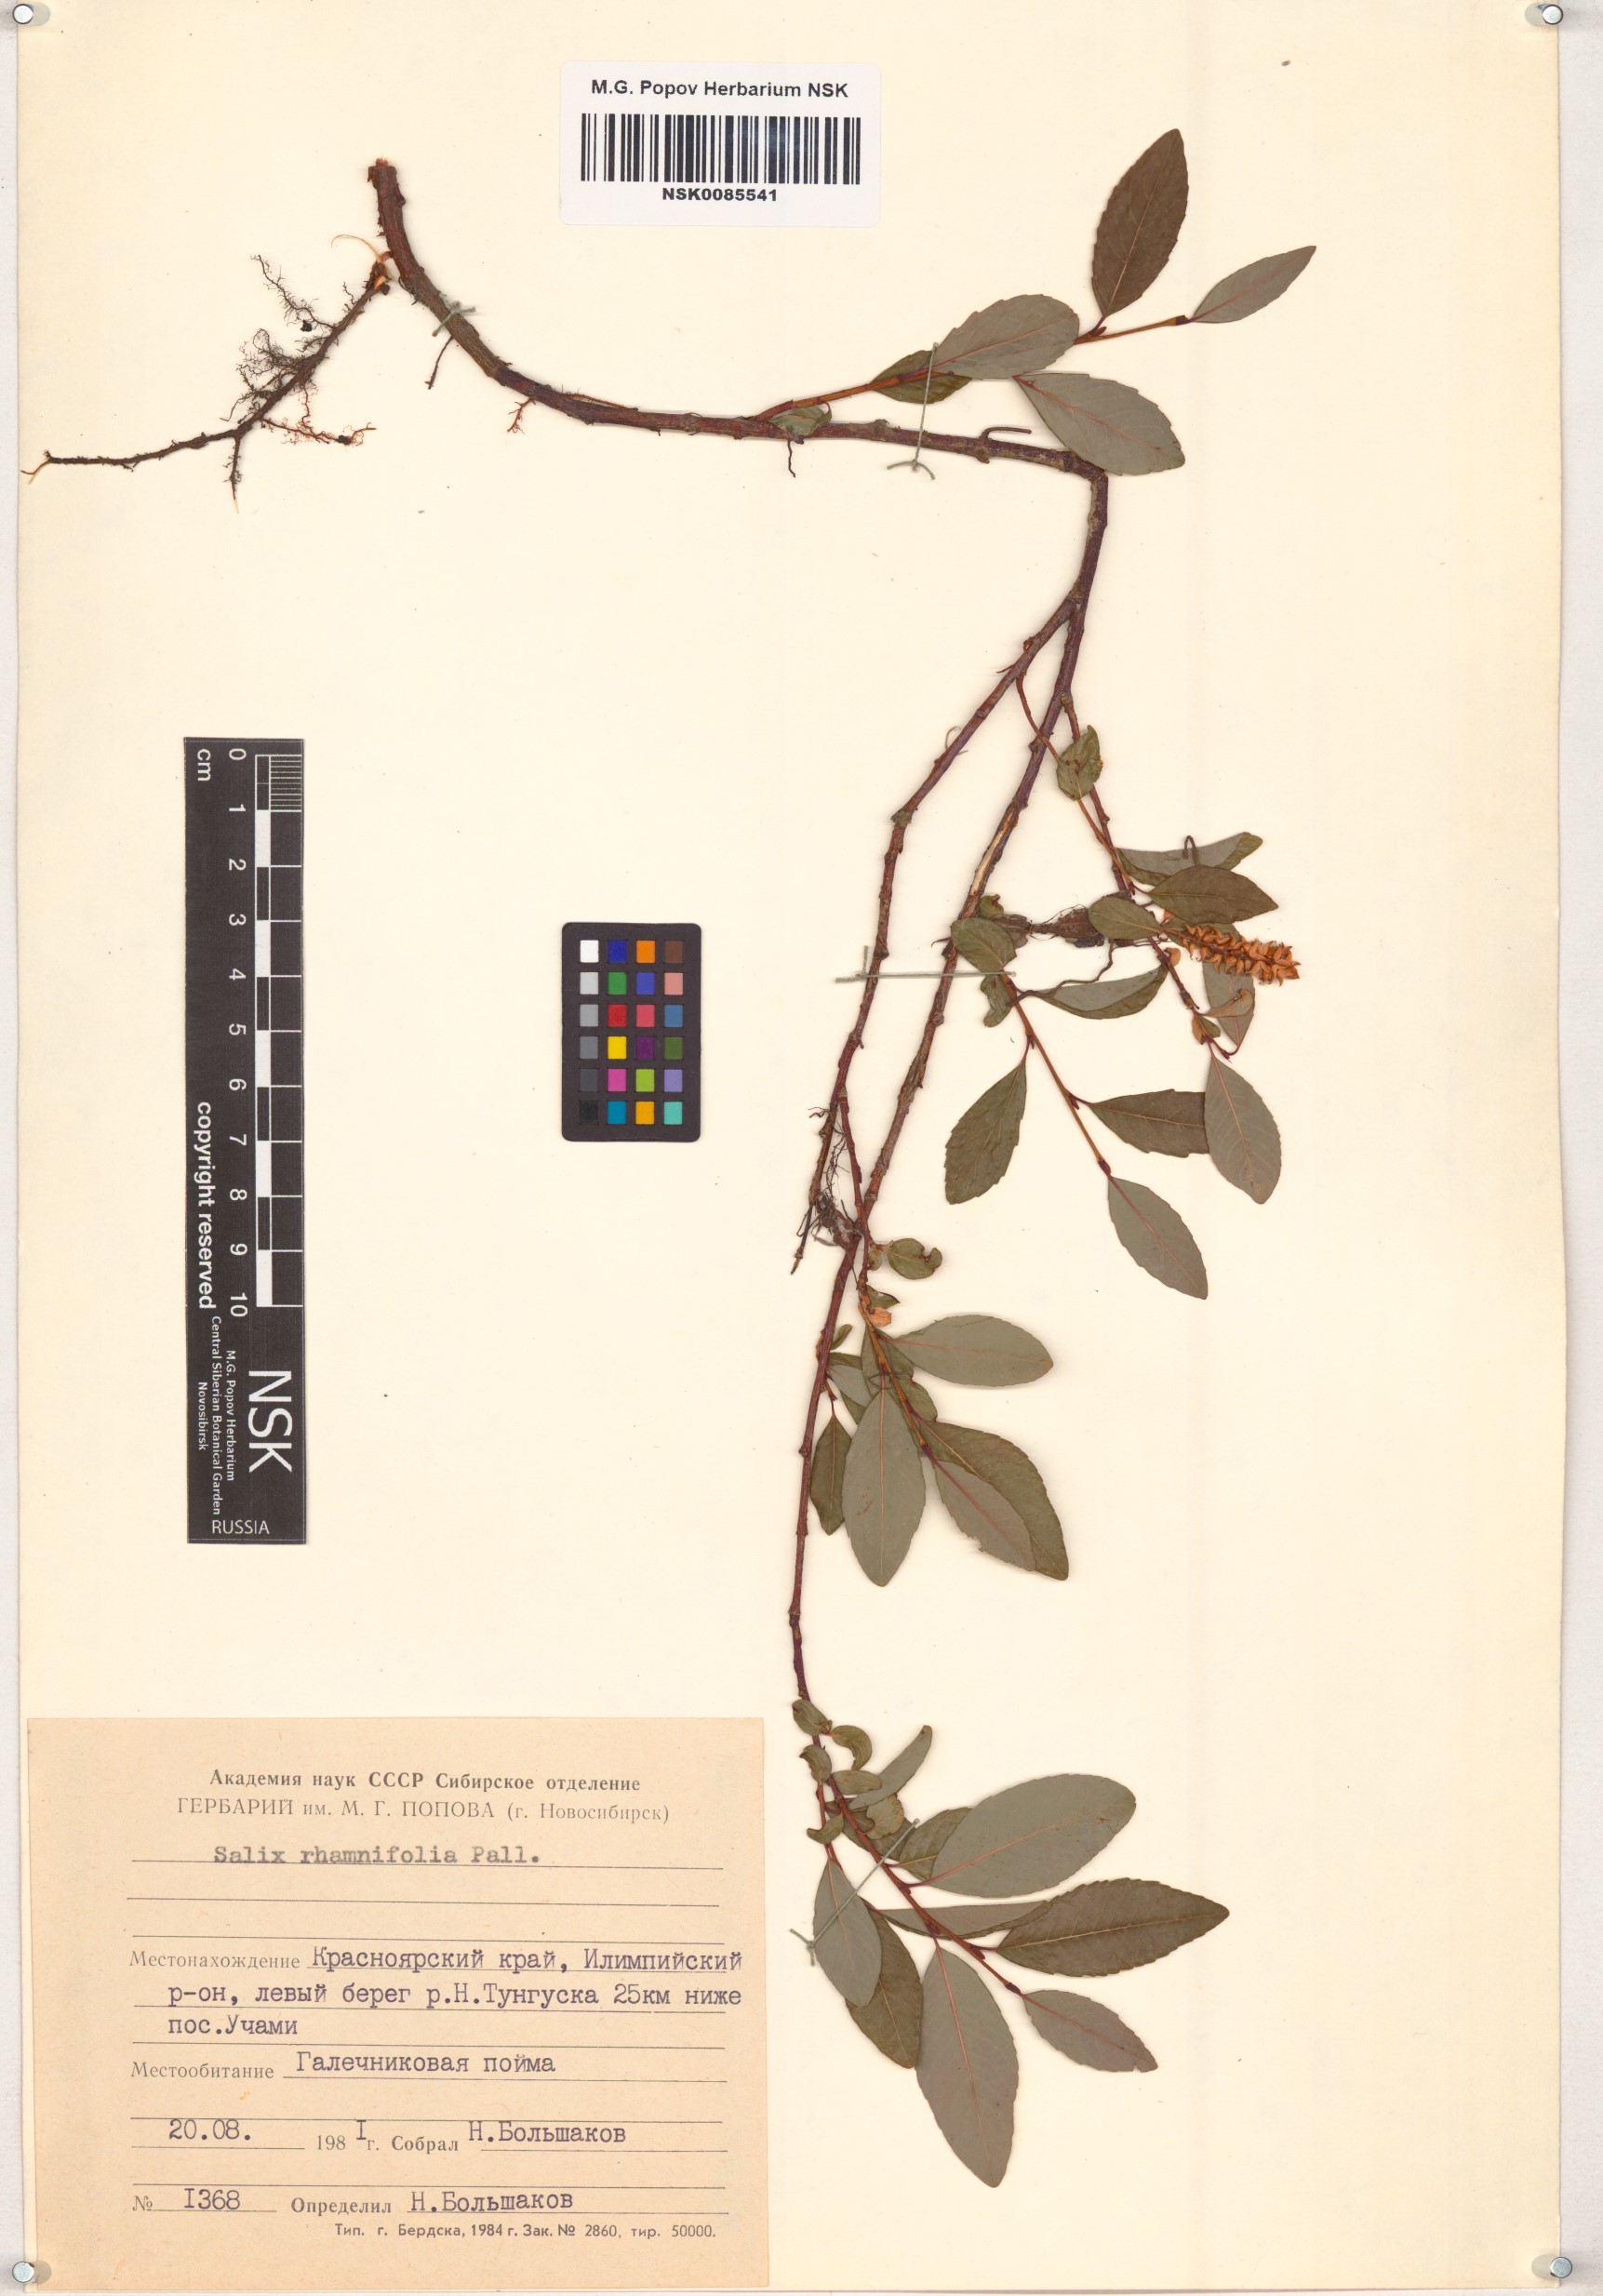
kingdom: Plantae
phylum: Tracheophyta
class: Magnoliopsida
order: Malpighiales
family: Salicaceae
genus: Salix
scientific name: Salix rhamnifolia
